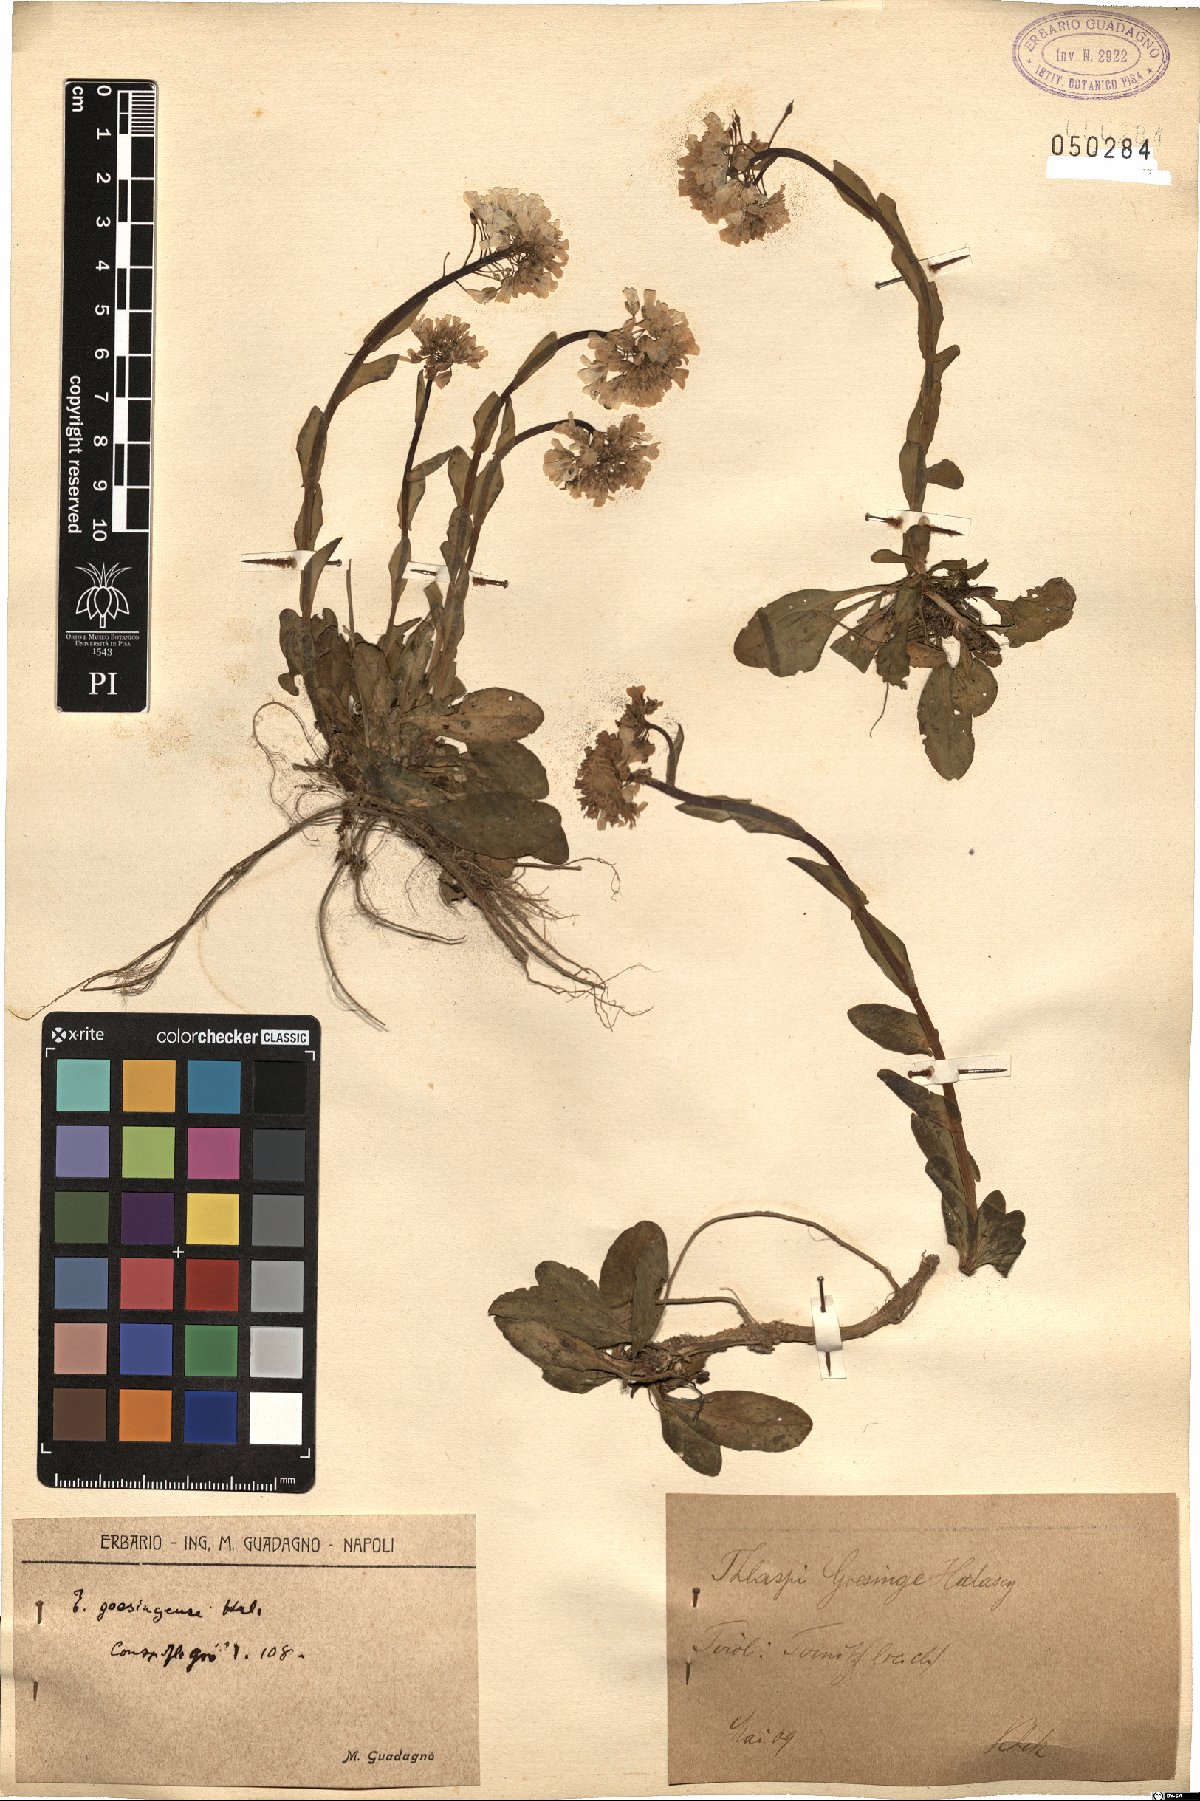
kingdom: Plantae
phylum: Tracheophyta
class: Magnoliopsida
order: Brassicales
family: Brassicaceae
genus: Noccaea
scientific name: Noccaea goesingensis
